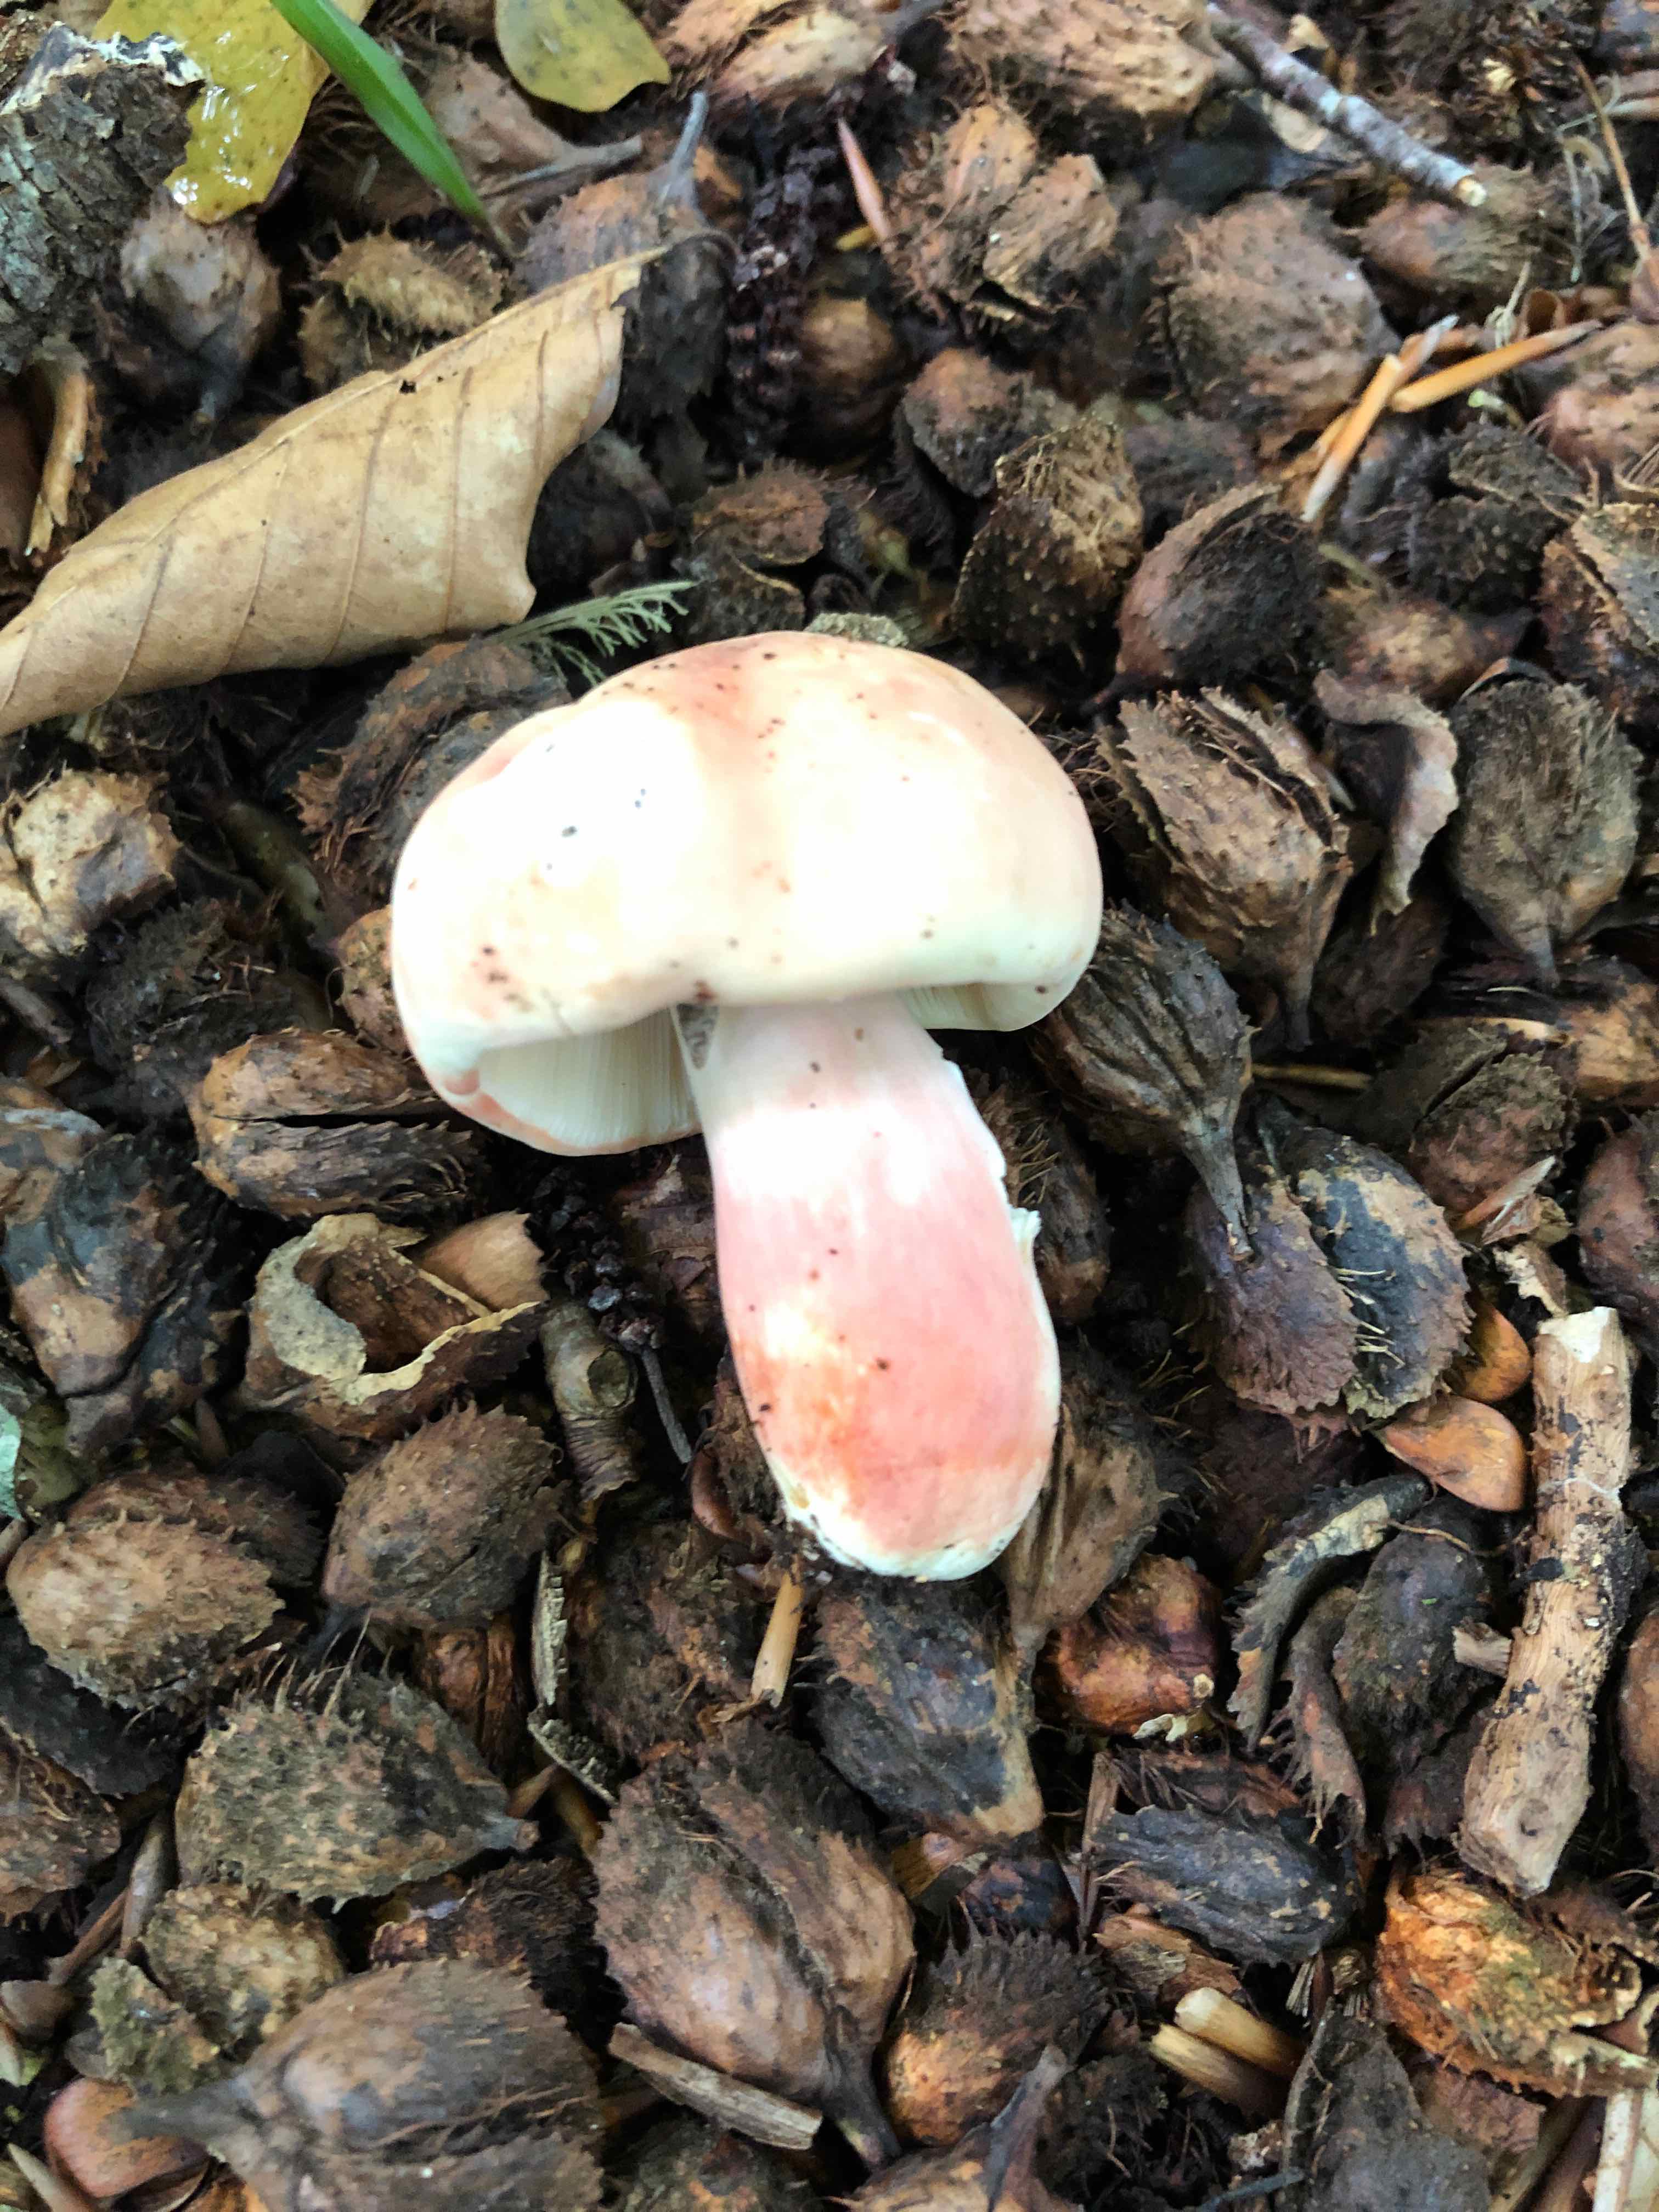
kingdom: Fungi
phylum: Basidiomycota
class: Agaricomycetes
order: Russulales
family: Russulaceae
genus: Russula
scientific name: Russula rosea
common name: fastkødet skørhat
